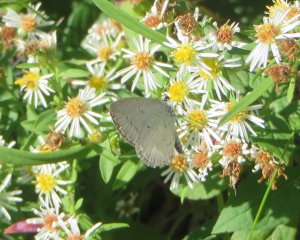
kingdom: Animalia
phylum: Arthropoda
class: Insecta
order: Lepidoptera
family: Lycaenidae
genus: Cyaniris
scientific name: Cyaniris neglecta
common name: Summer Azure
